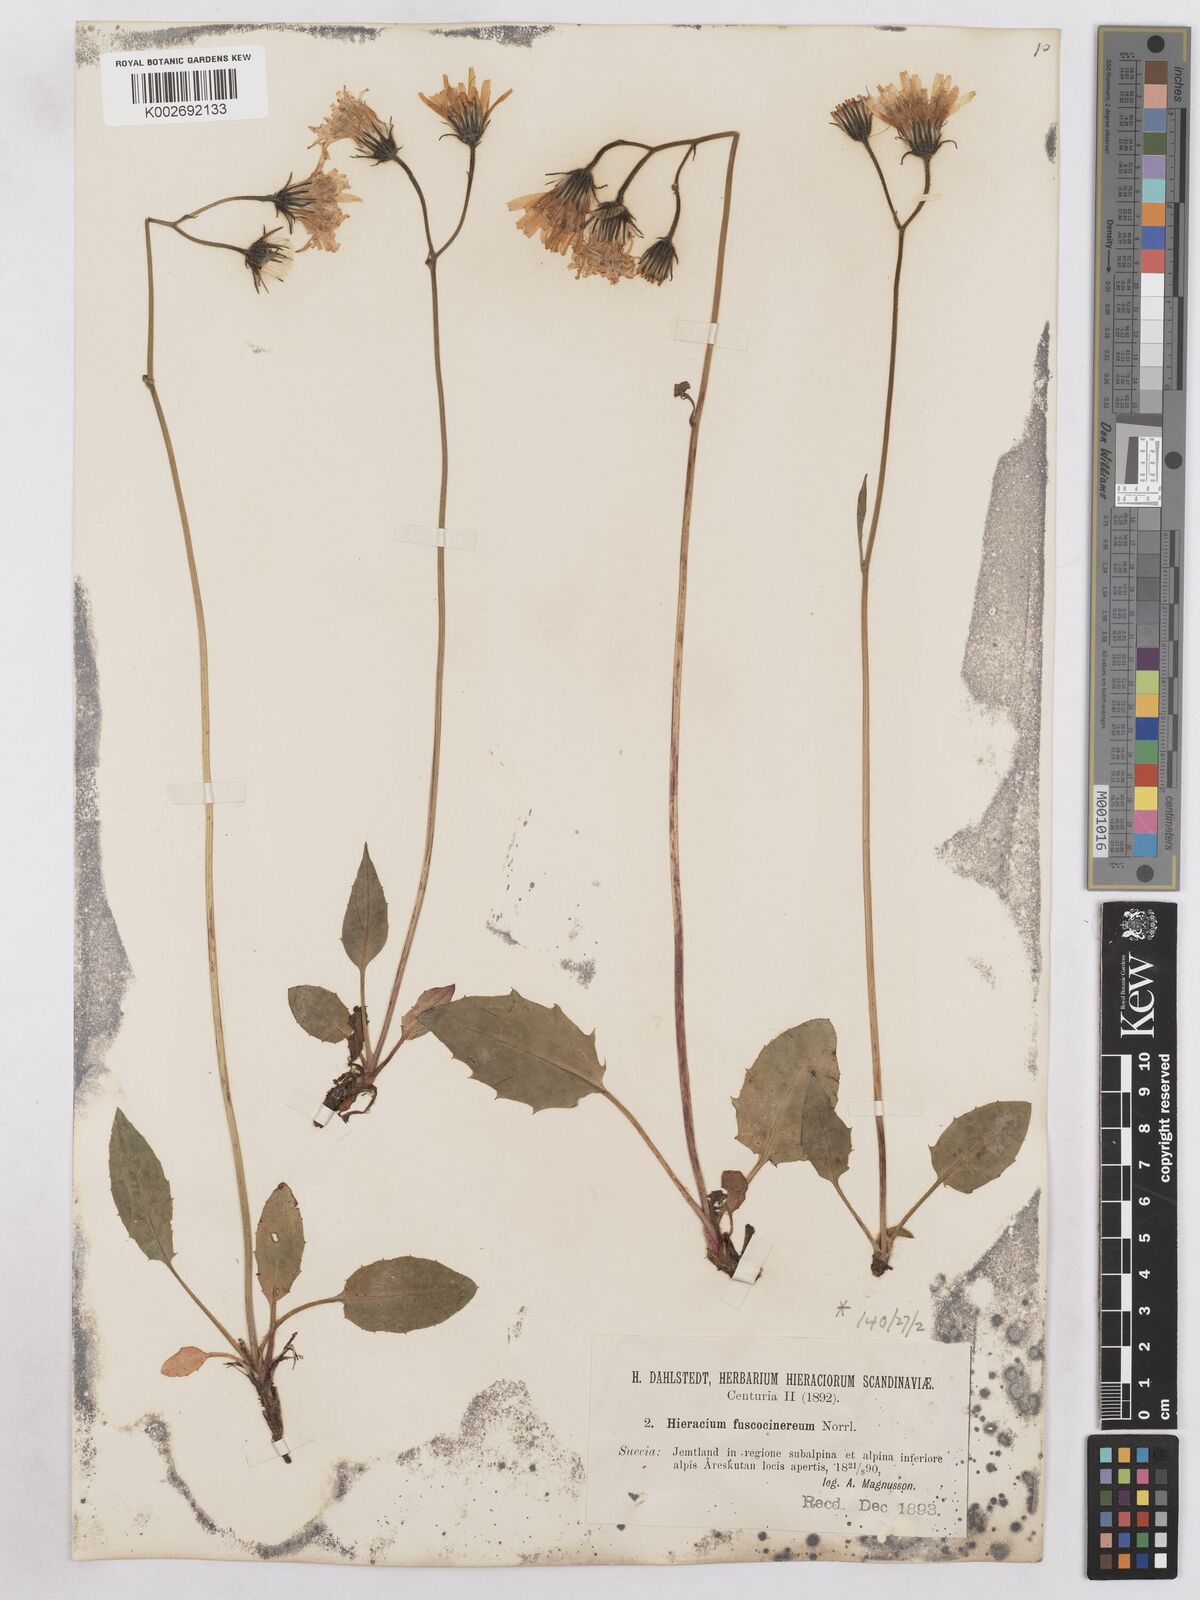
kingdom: Plantae
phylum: Tracheophyta
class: Magnoliopsida
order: Asterales
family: Asteraceae
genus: Hieracium
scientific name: Hieracium fuscocinereum
